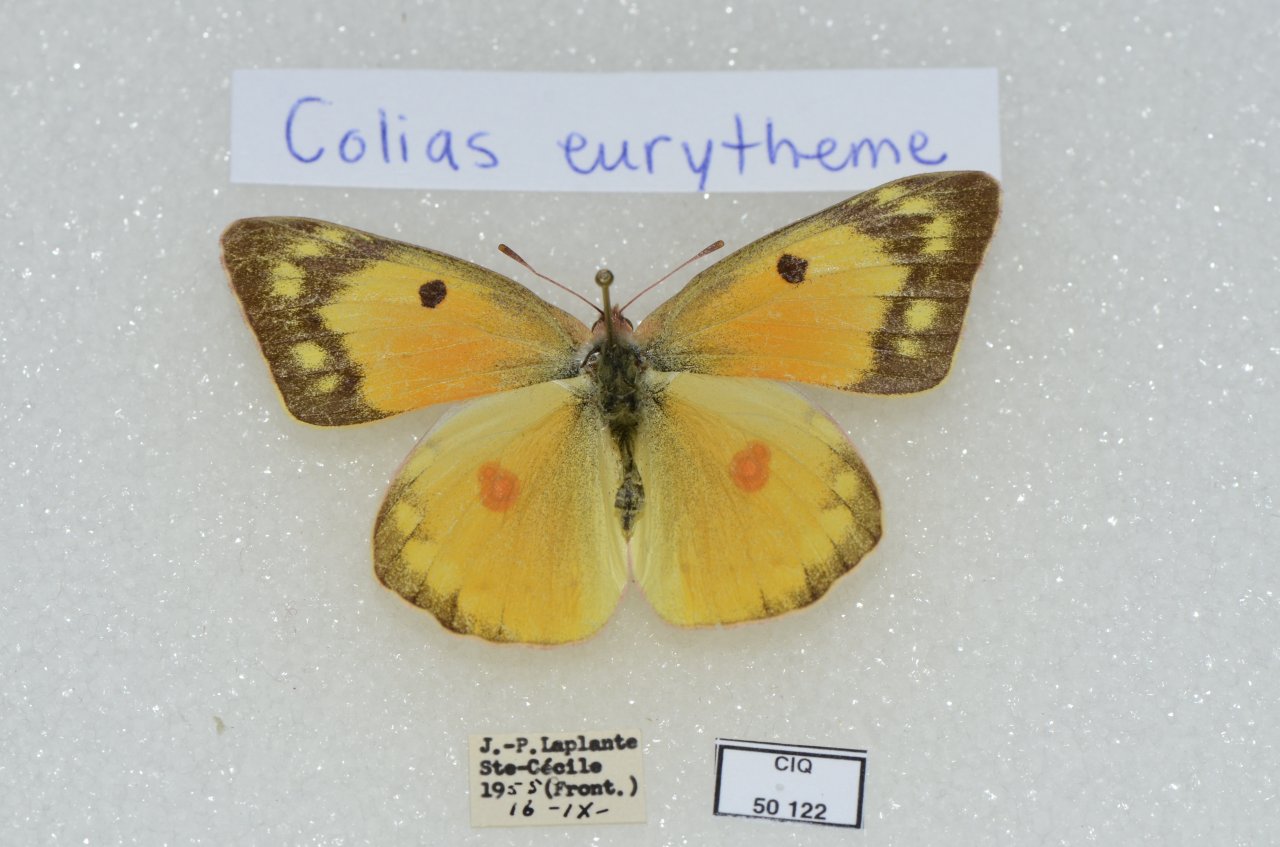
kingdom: Animalia
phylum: Arthropoda
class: Insecta
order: Lepidoptera
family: Pieridae
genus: Colias
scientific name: Colias eurytheme
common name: Orange Sulphur
